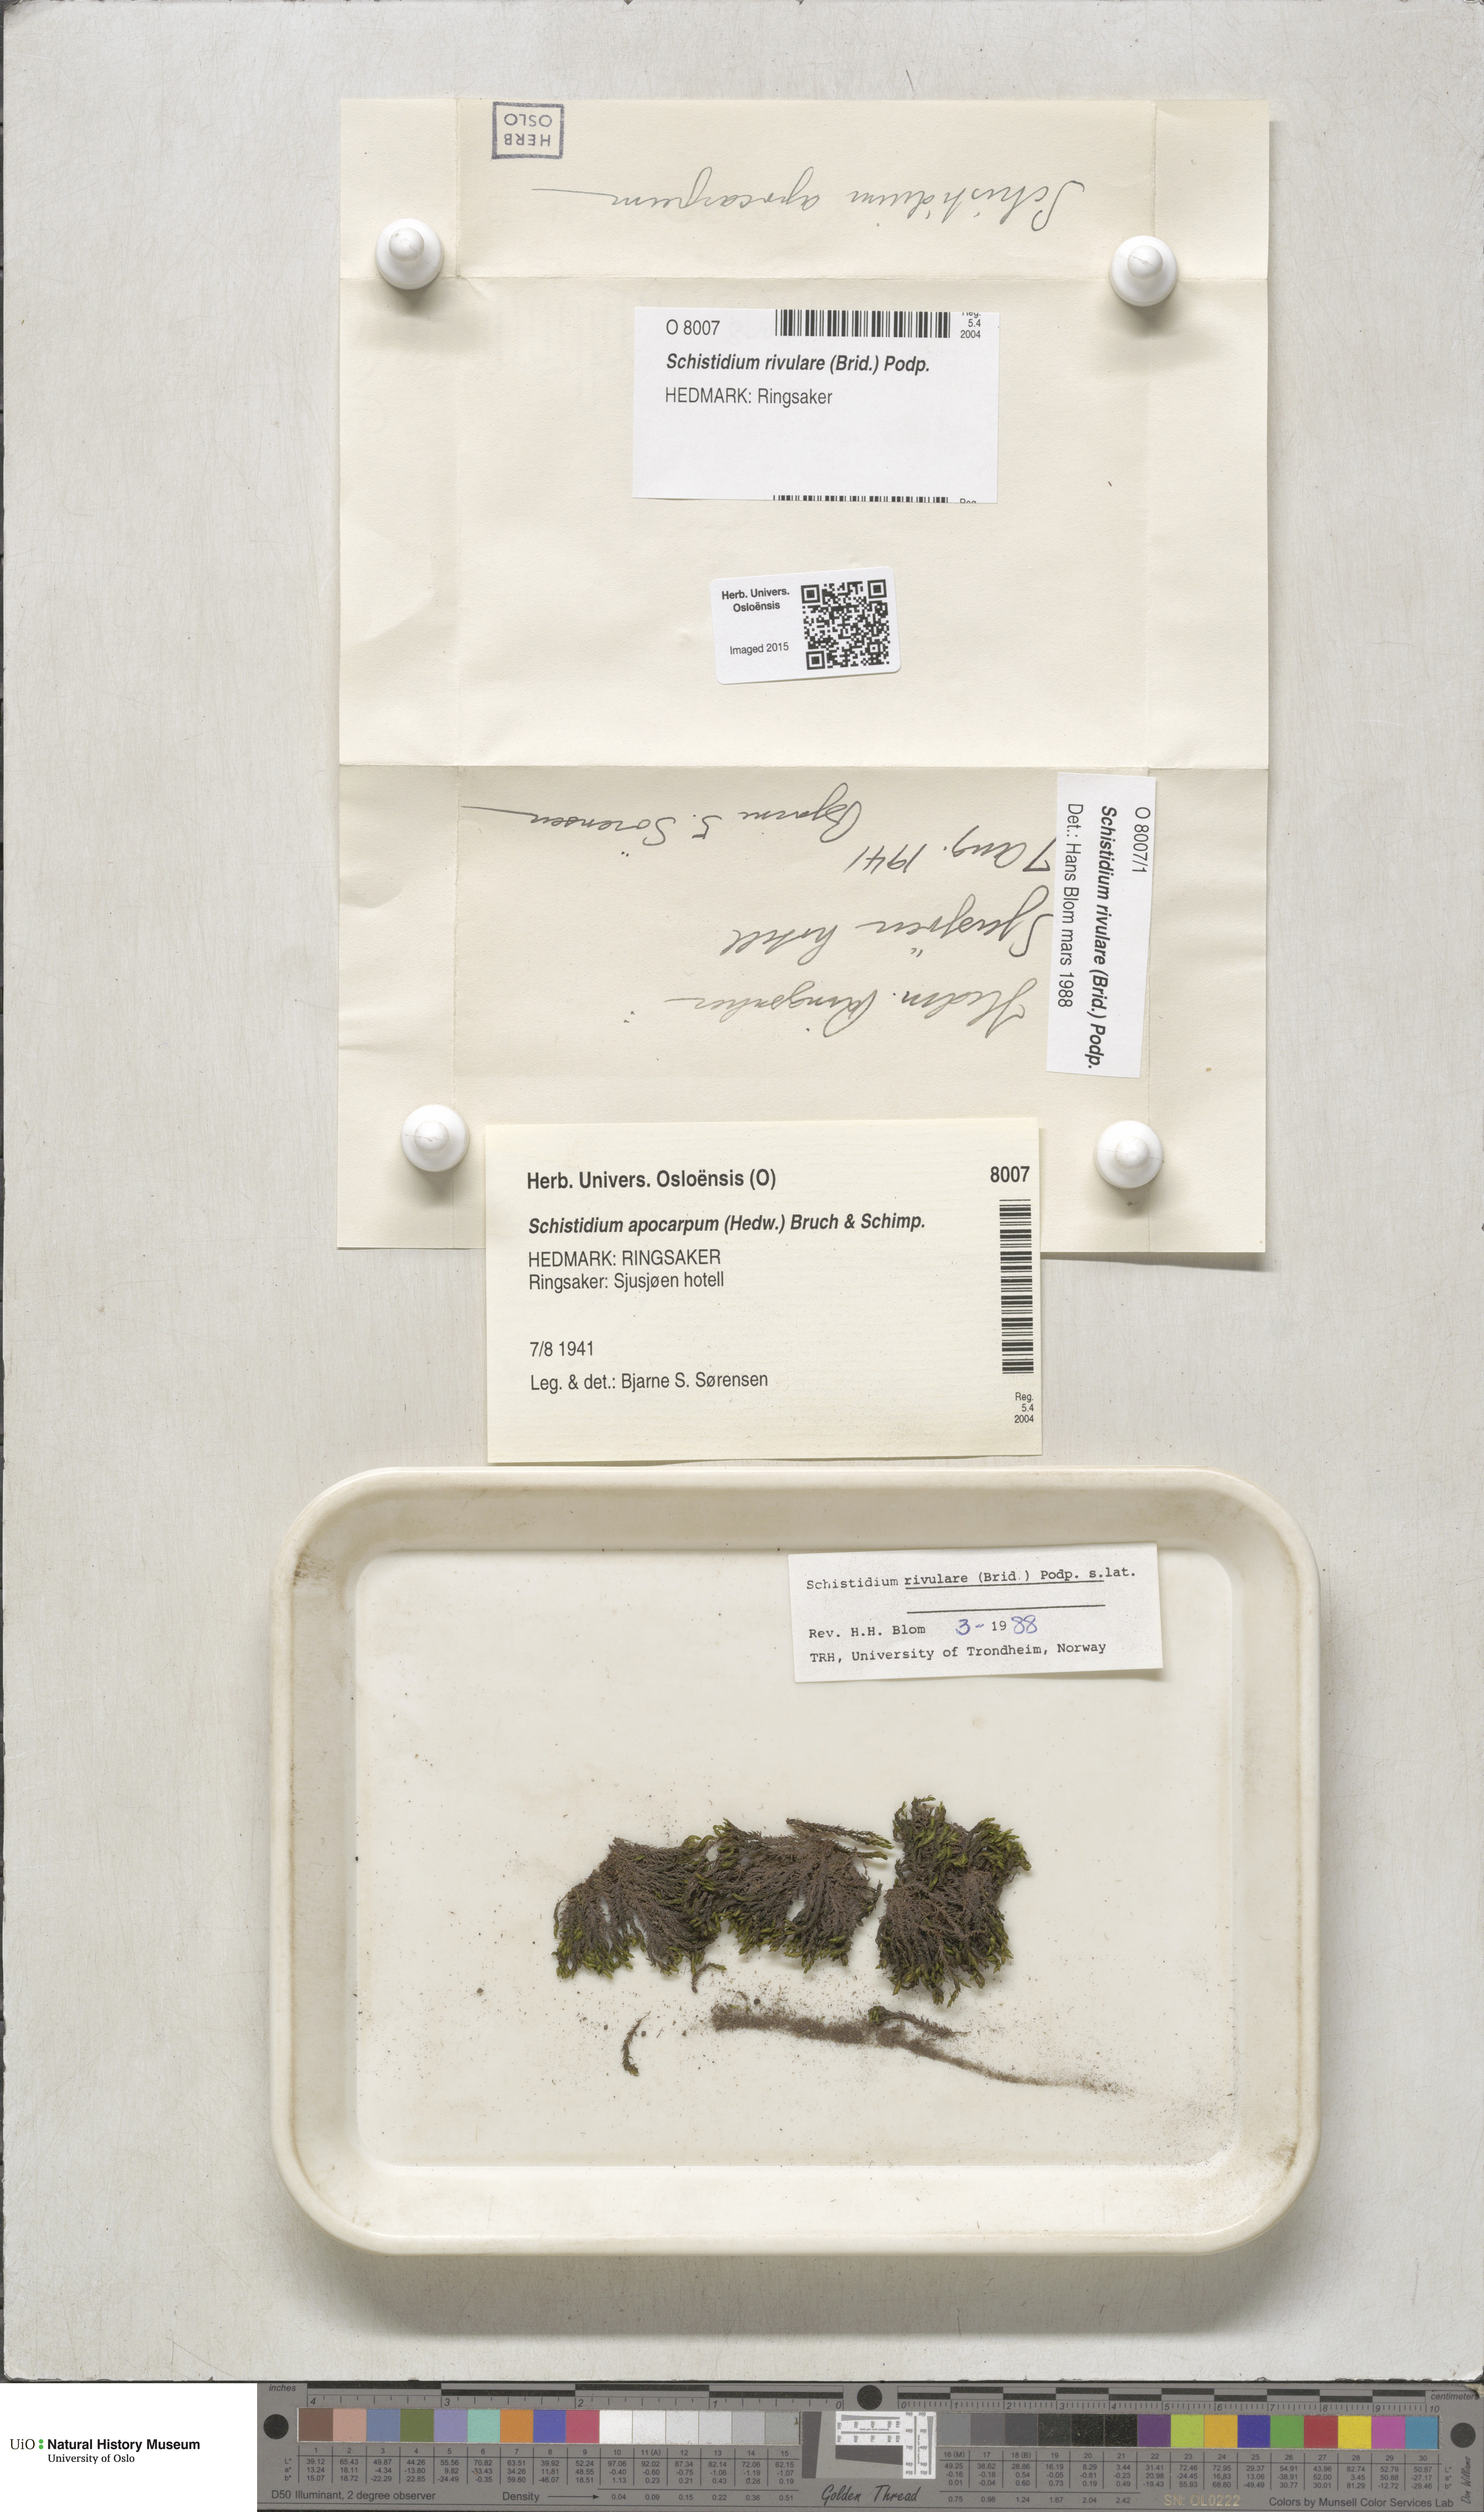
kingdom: Plantae
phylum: Bryophyta
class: Bryopsida
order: Grimmiales
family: Grimmiaceae
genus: Schistidium
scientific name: Schistidium rivulare
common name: River bloom moss
